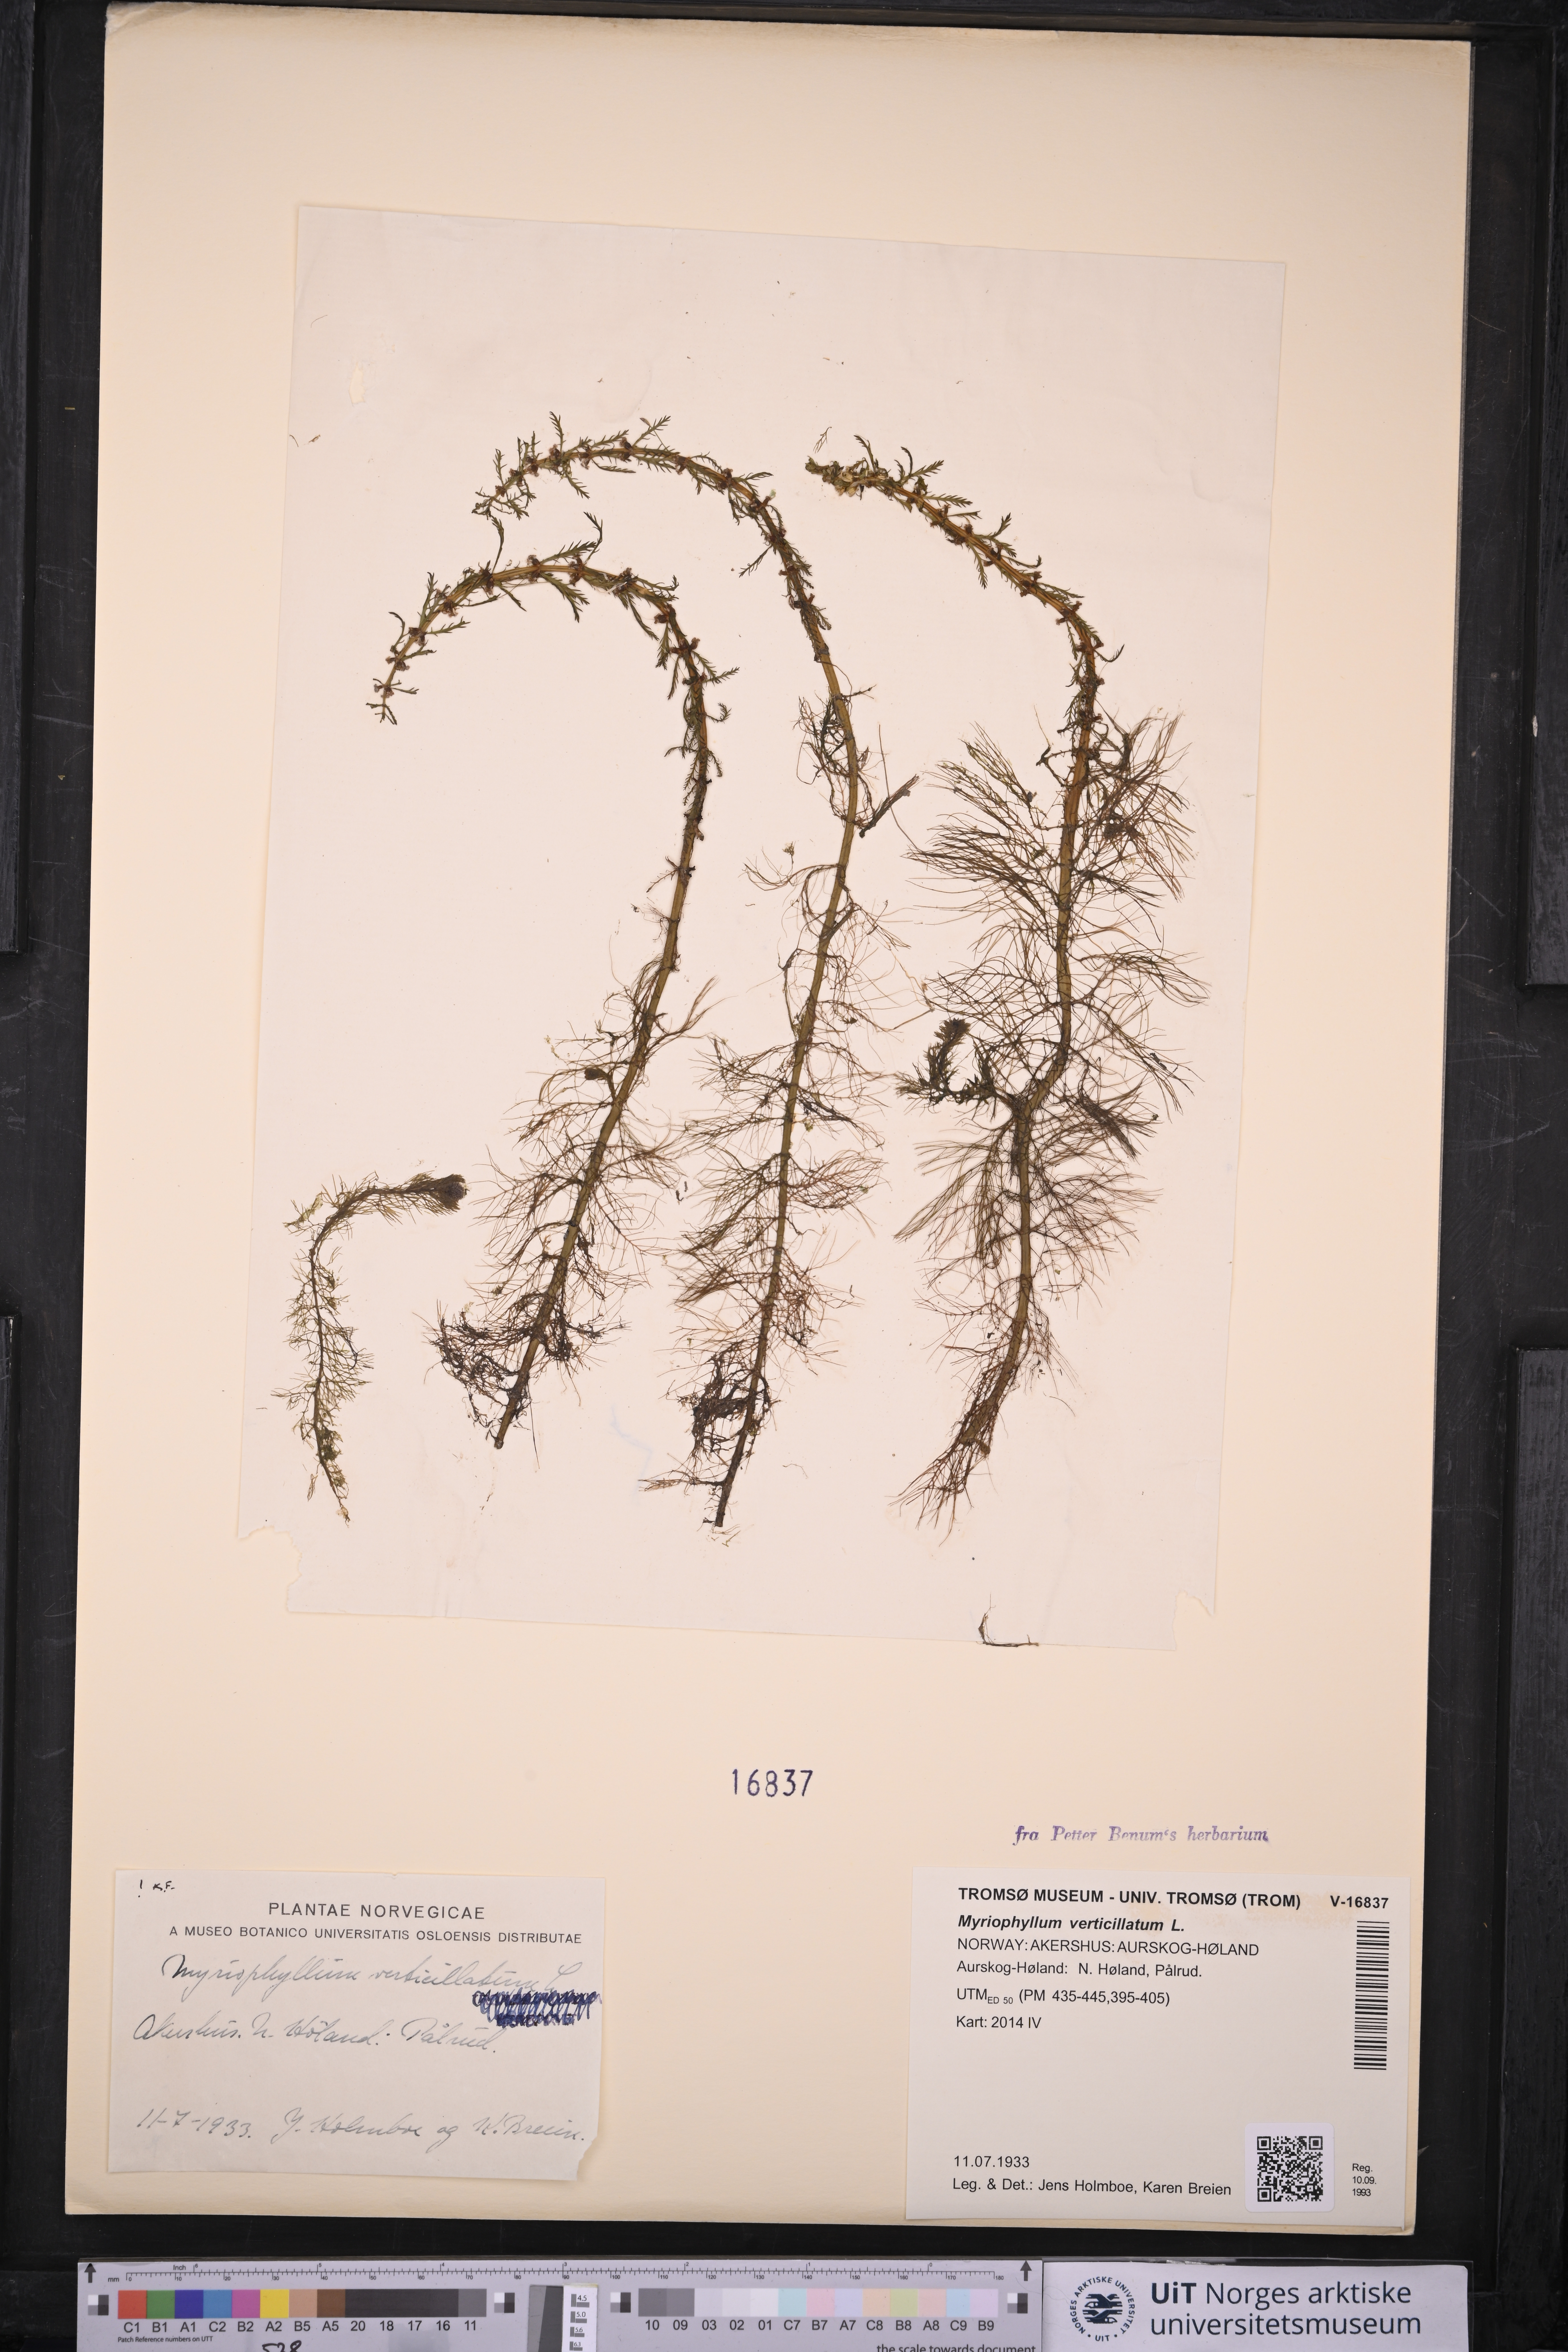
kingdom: Plantae
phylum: Tracheophyta
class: Magnoliopsida
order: Saxifragales
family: Haloragaceae
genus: Myriophyllum
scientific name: Myriophyllum verticillatum
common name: Whorled water-milfoil
